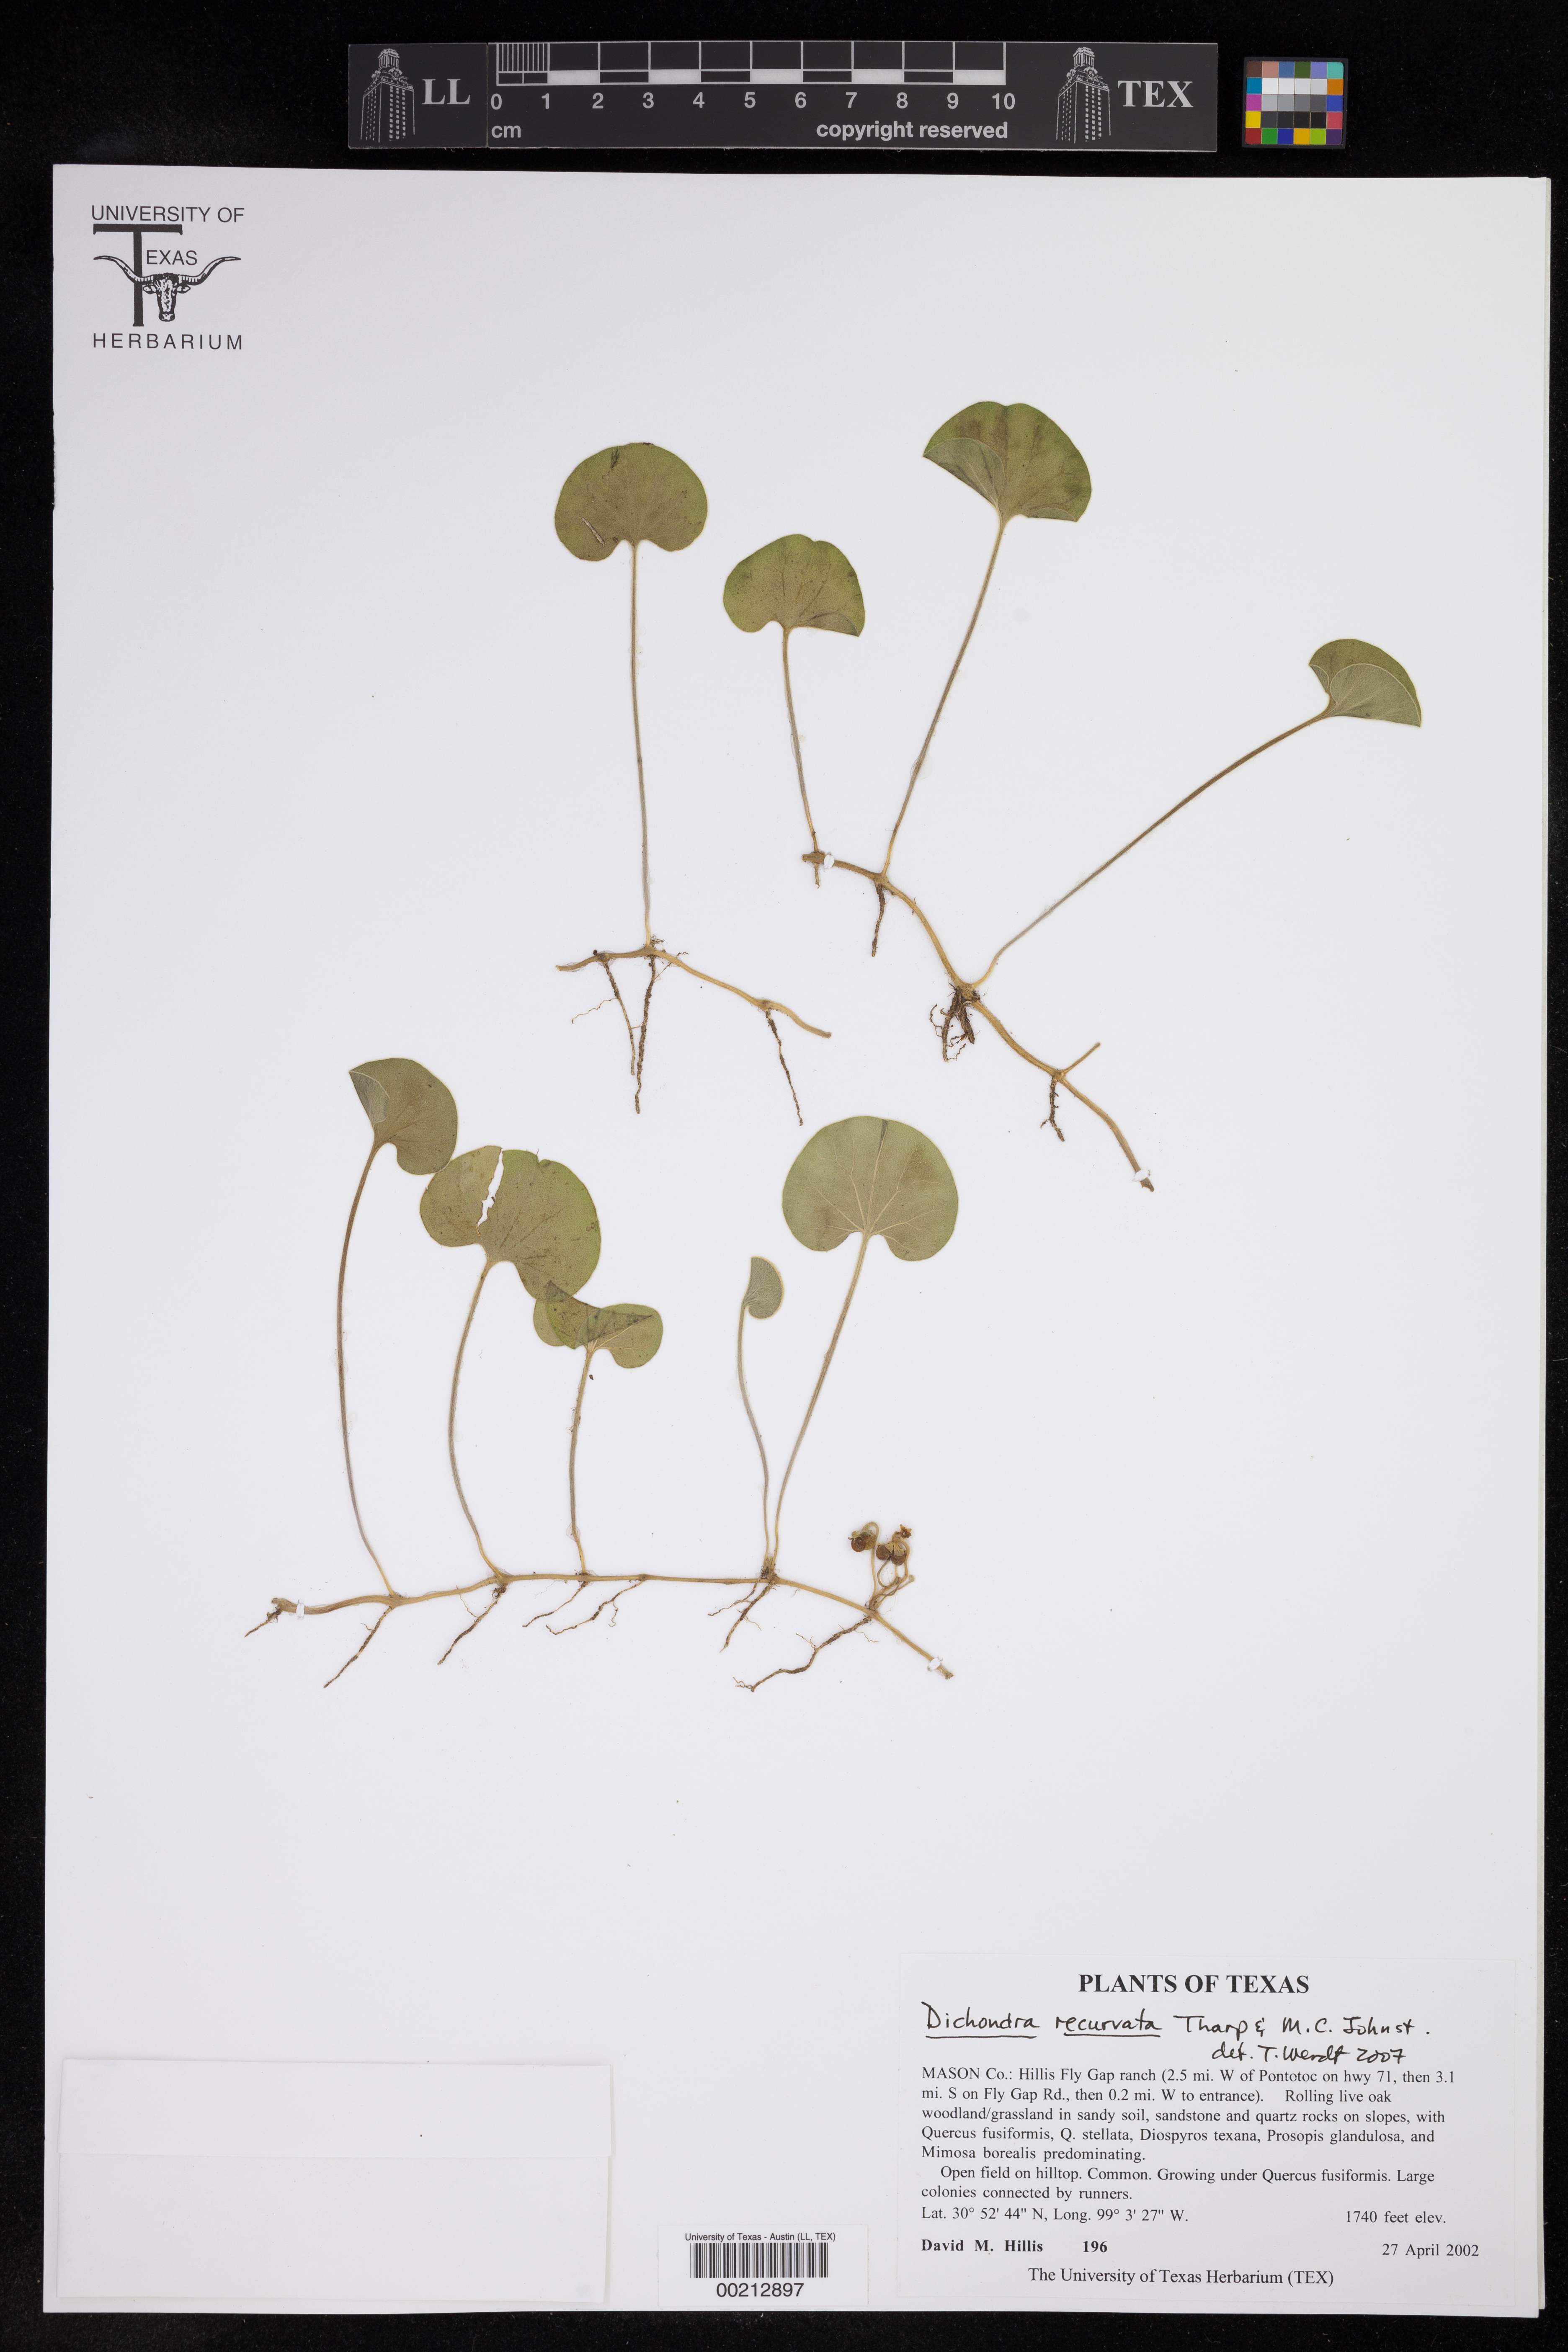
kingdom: Plantae
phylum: Tracheophyta
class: Magnoliopsida
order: Solanales
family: Convolvulaceae
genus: Dichondra
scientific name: Dichondra recurvata
